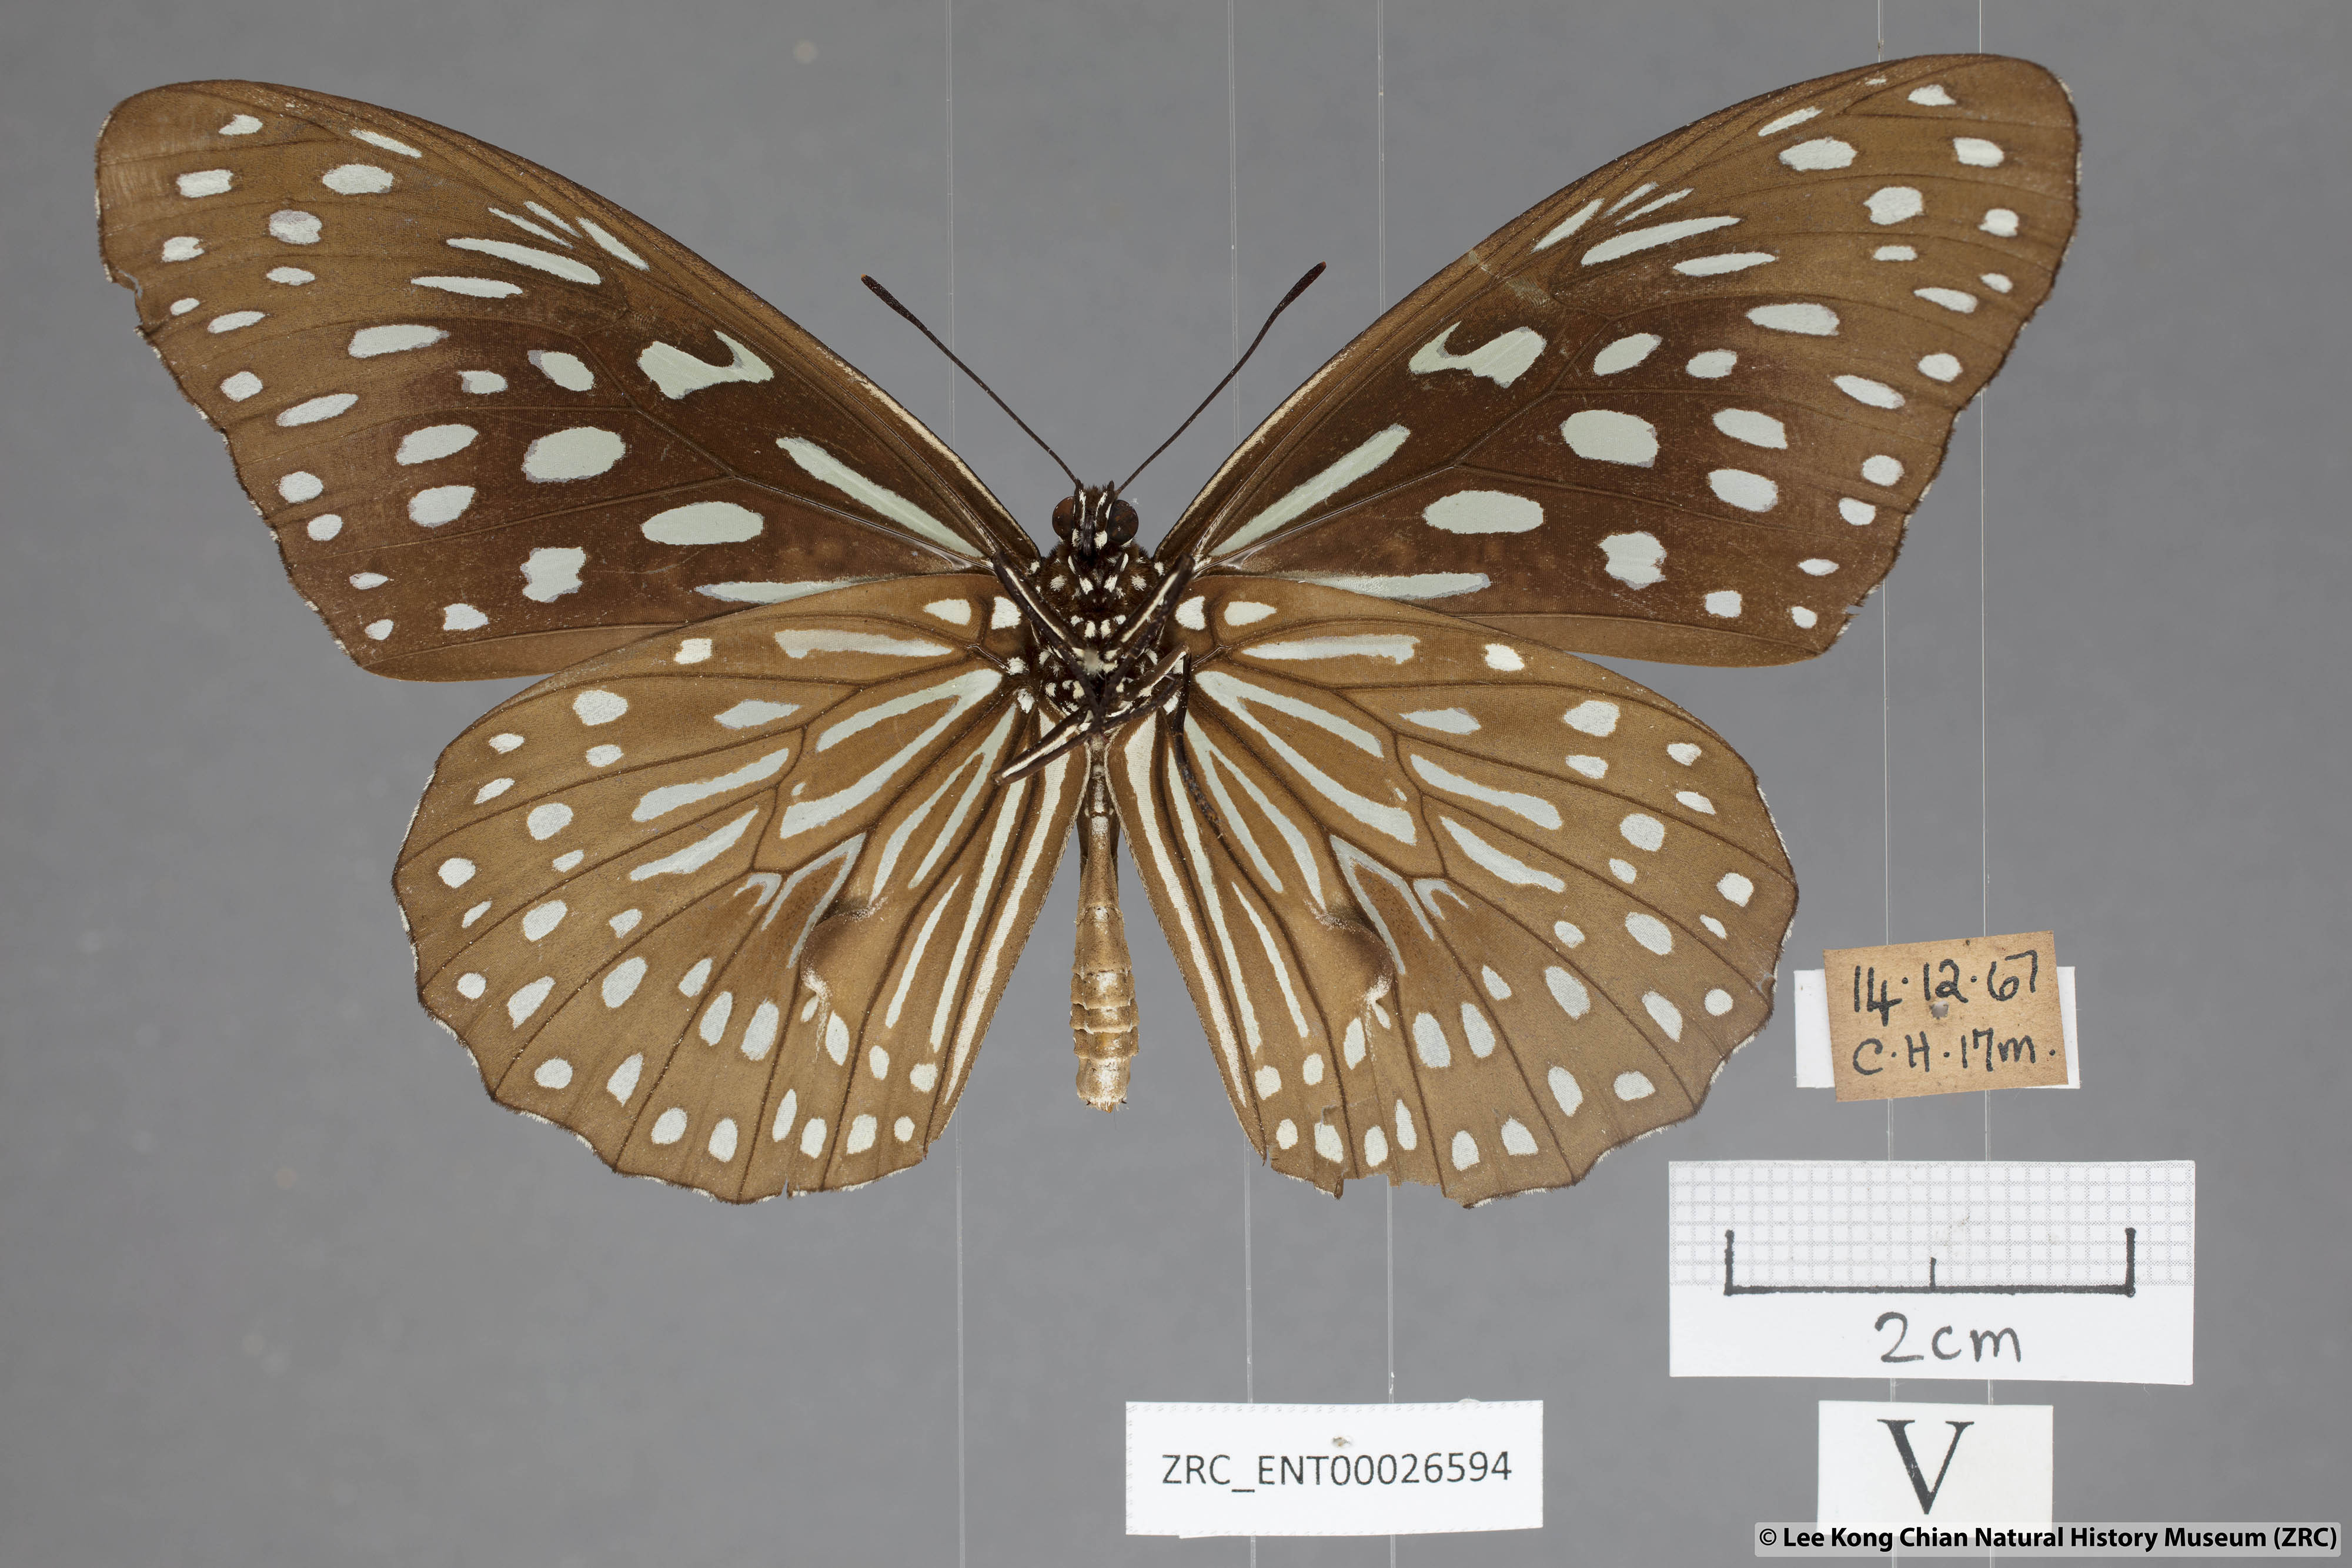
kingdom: Animalia
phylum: Arthropoda
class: Insecta
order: Lepidoptera
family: Nymphalidae
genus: Tirumala
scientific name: Tirumala septentrionis
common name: Dark blue tiger butterfly
